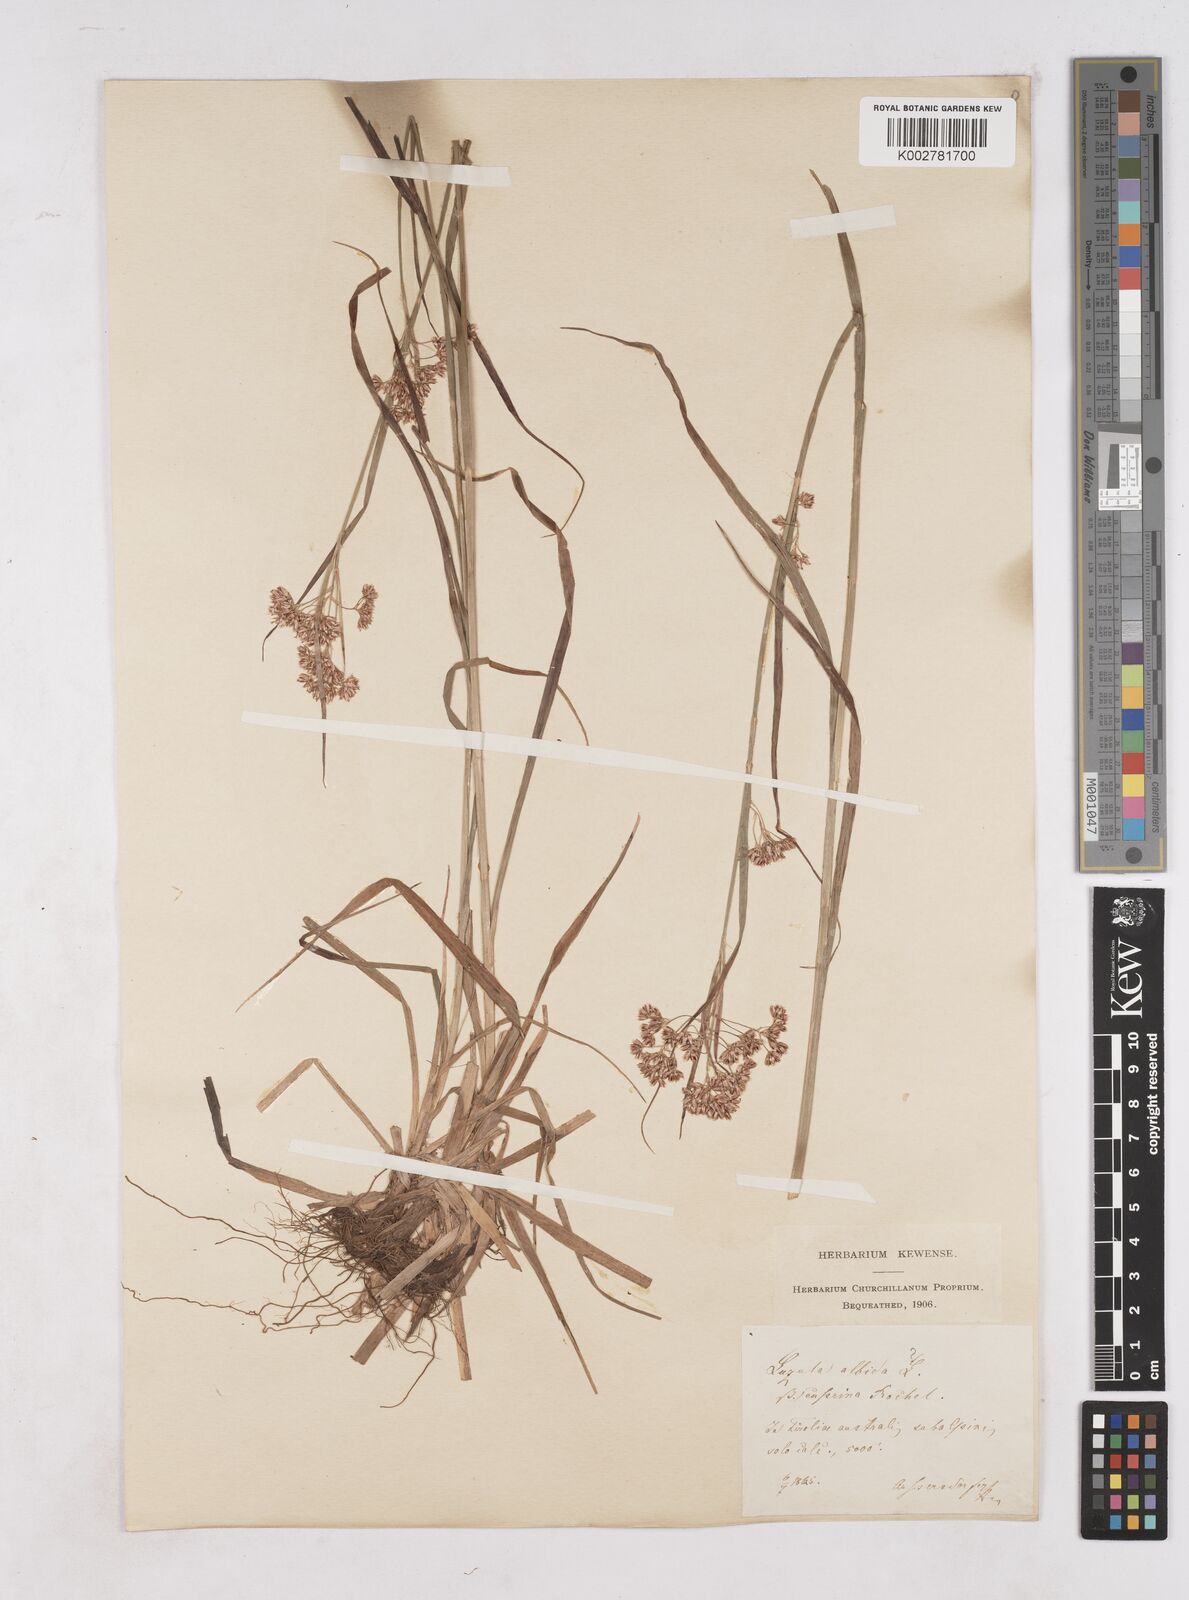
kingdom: Plantae
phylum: Tracheophyta
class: Liliopsida
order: Poales
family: Juncaceae
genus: Luzula
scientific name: Luzula luzuloides
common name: White wood-rush
